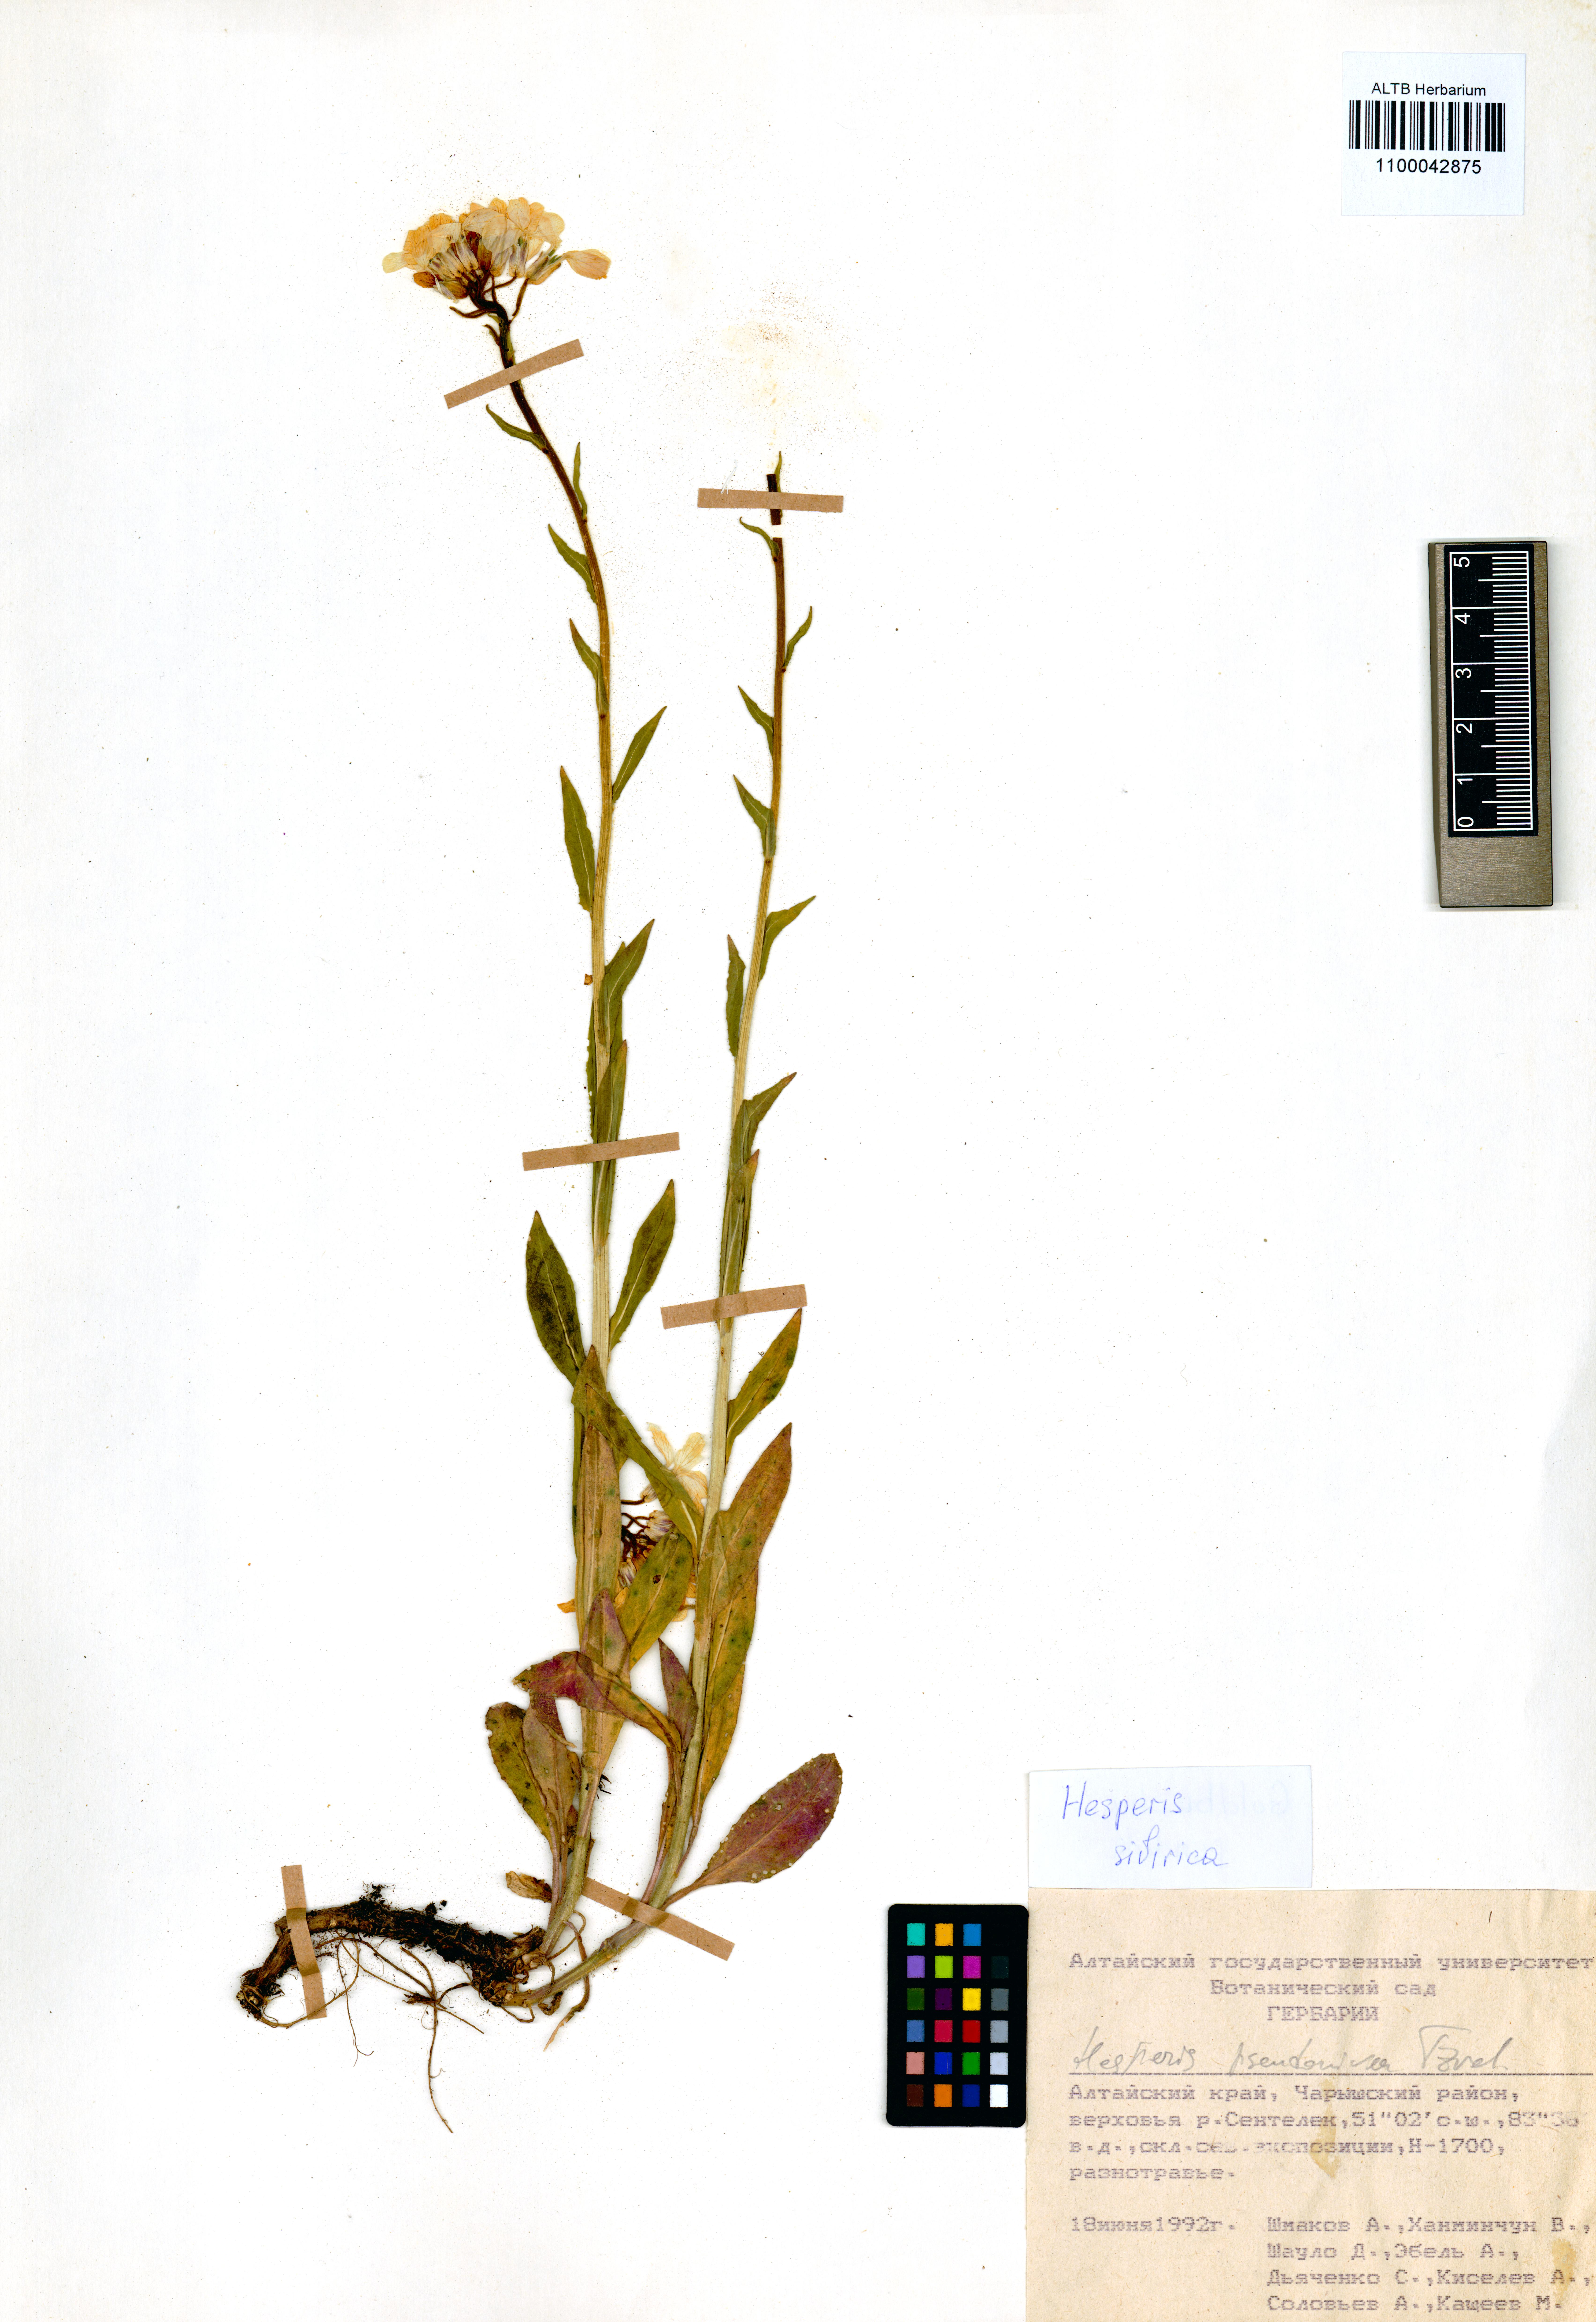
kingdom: Plantae
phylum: Tracheophyta
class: Magnoliopsida
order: Brassicales
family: Brassicaceae
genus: Hesperis
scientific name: Hesperis sibirica
